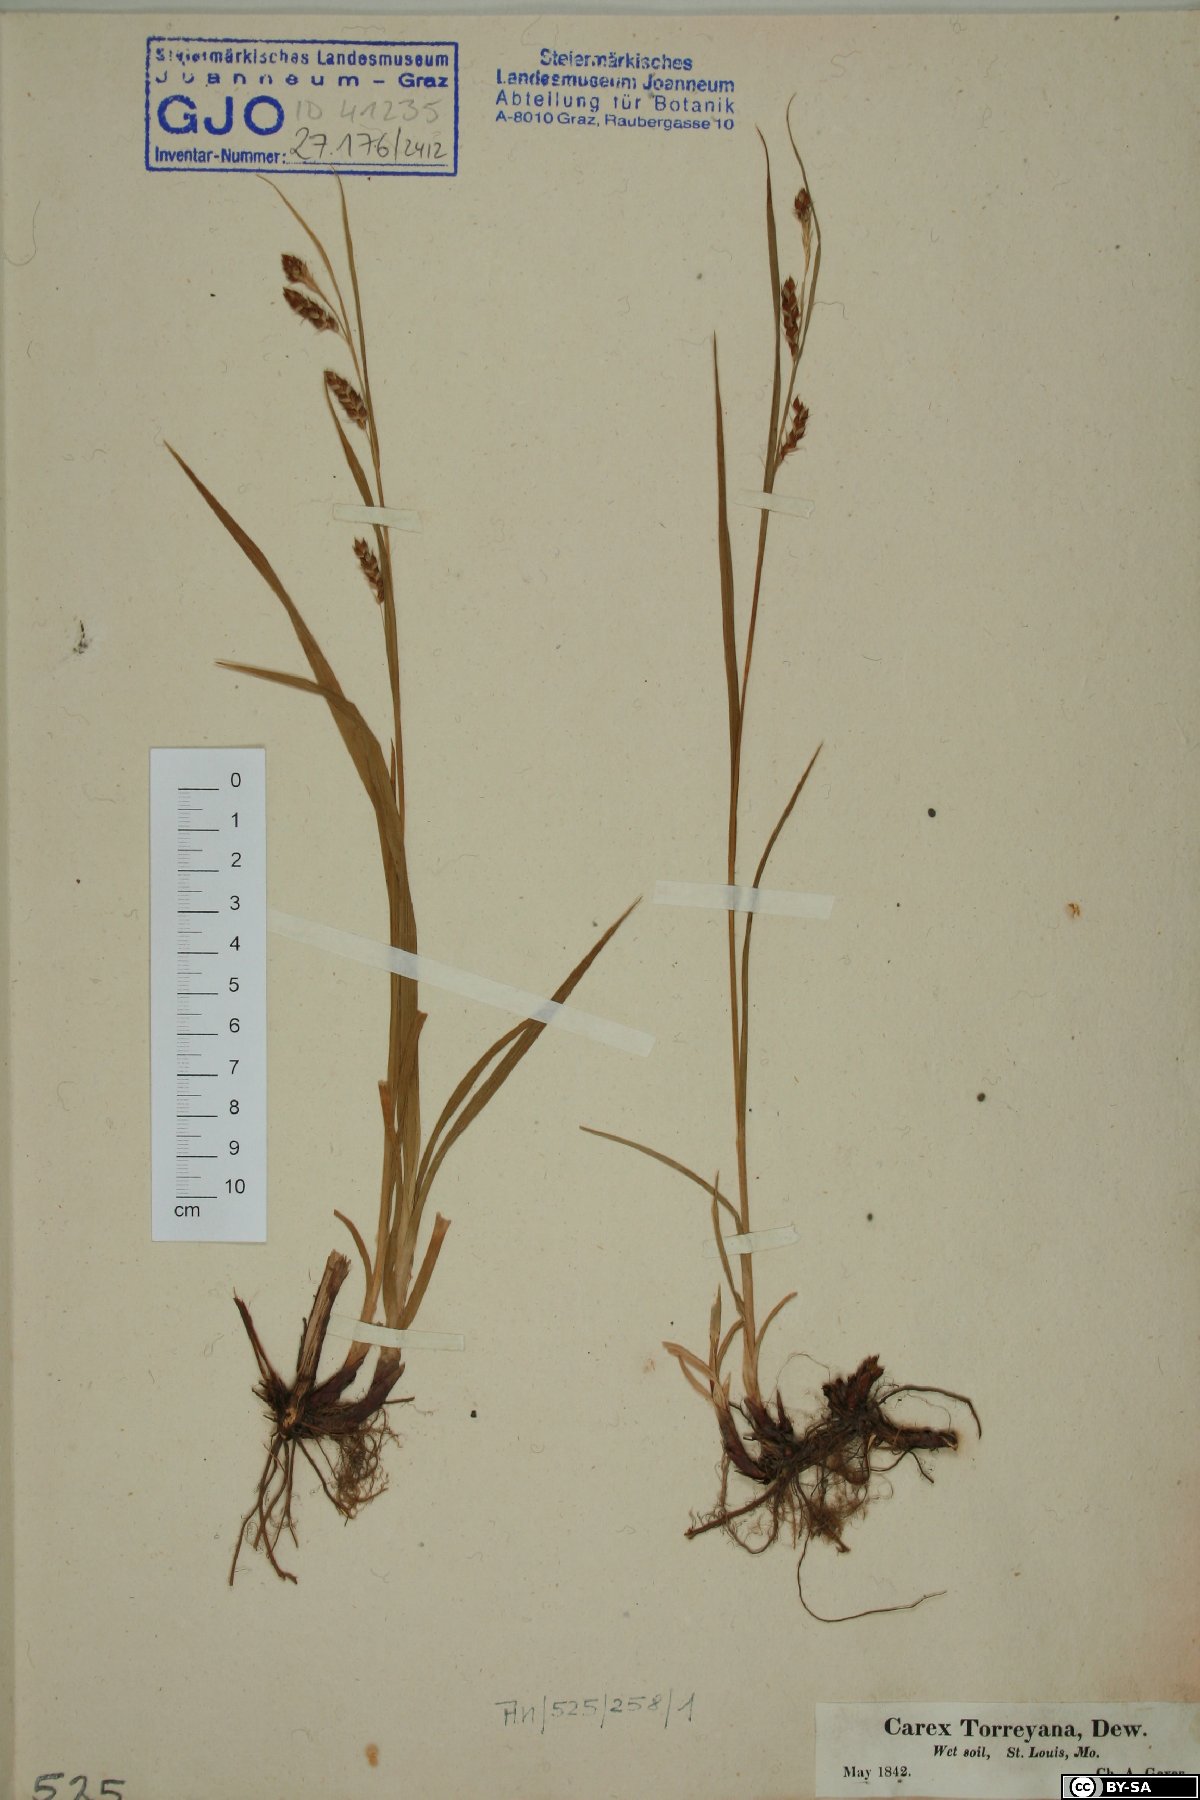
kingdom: Plantae
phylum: Tracheophyta
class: Liliopsida
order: Poales
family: Cyperaceae
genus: Carex
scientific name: Carex davisii
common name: Davis' sedge
